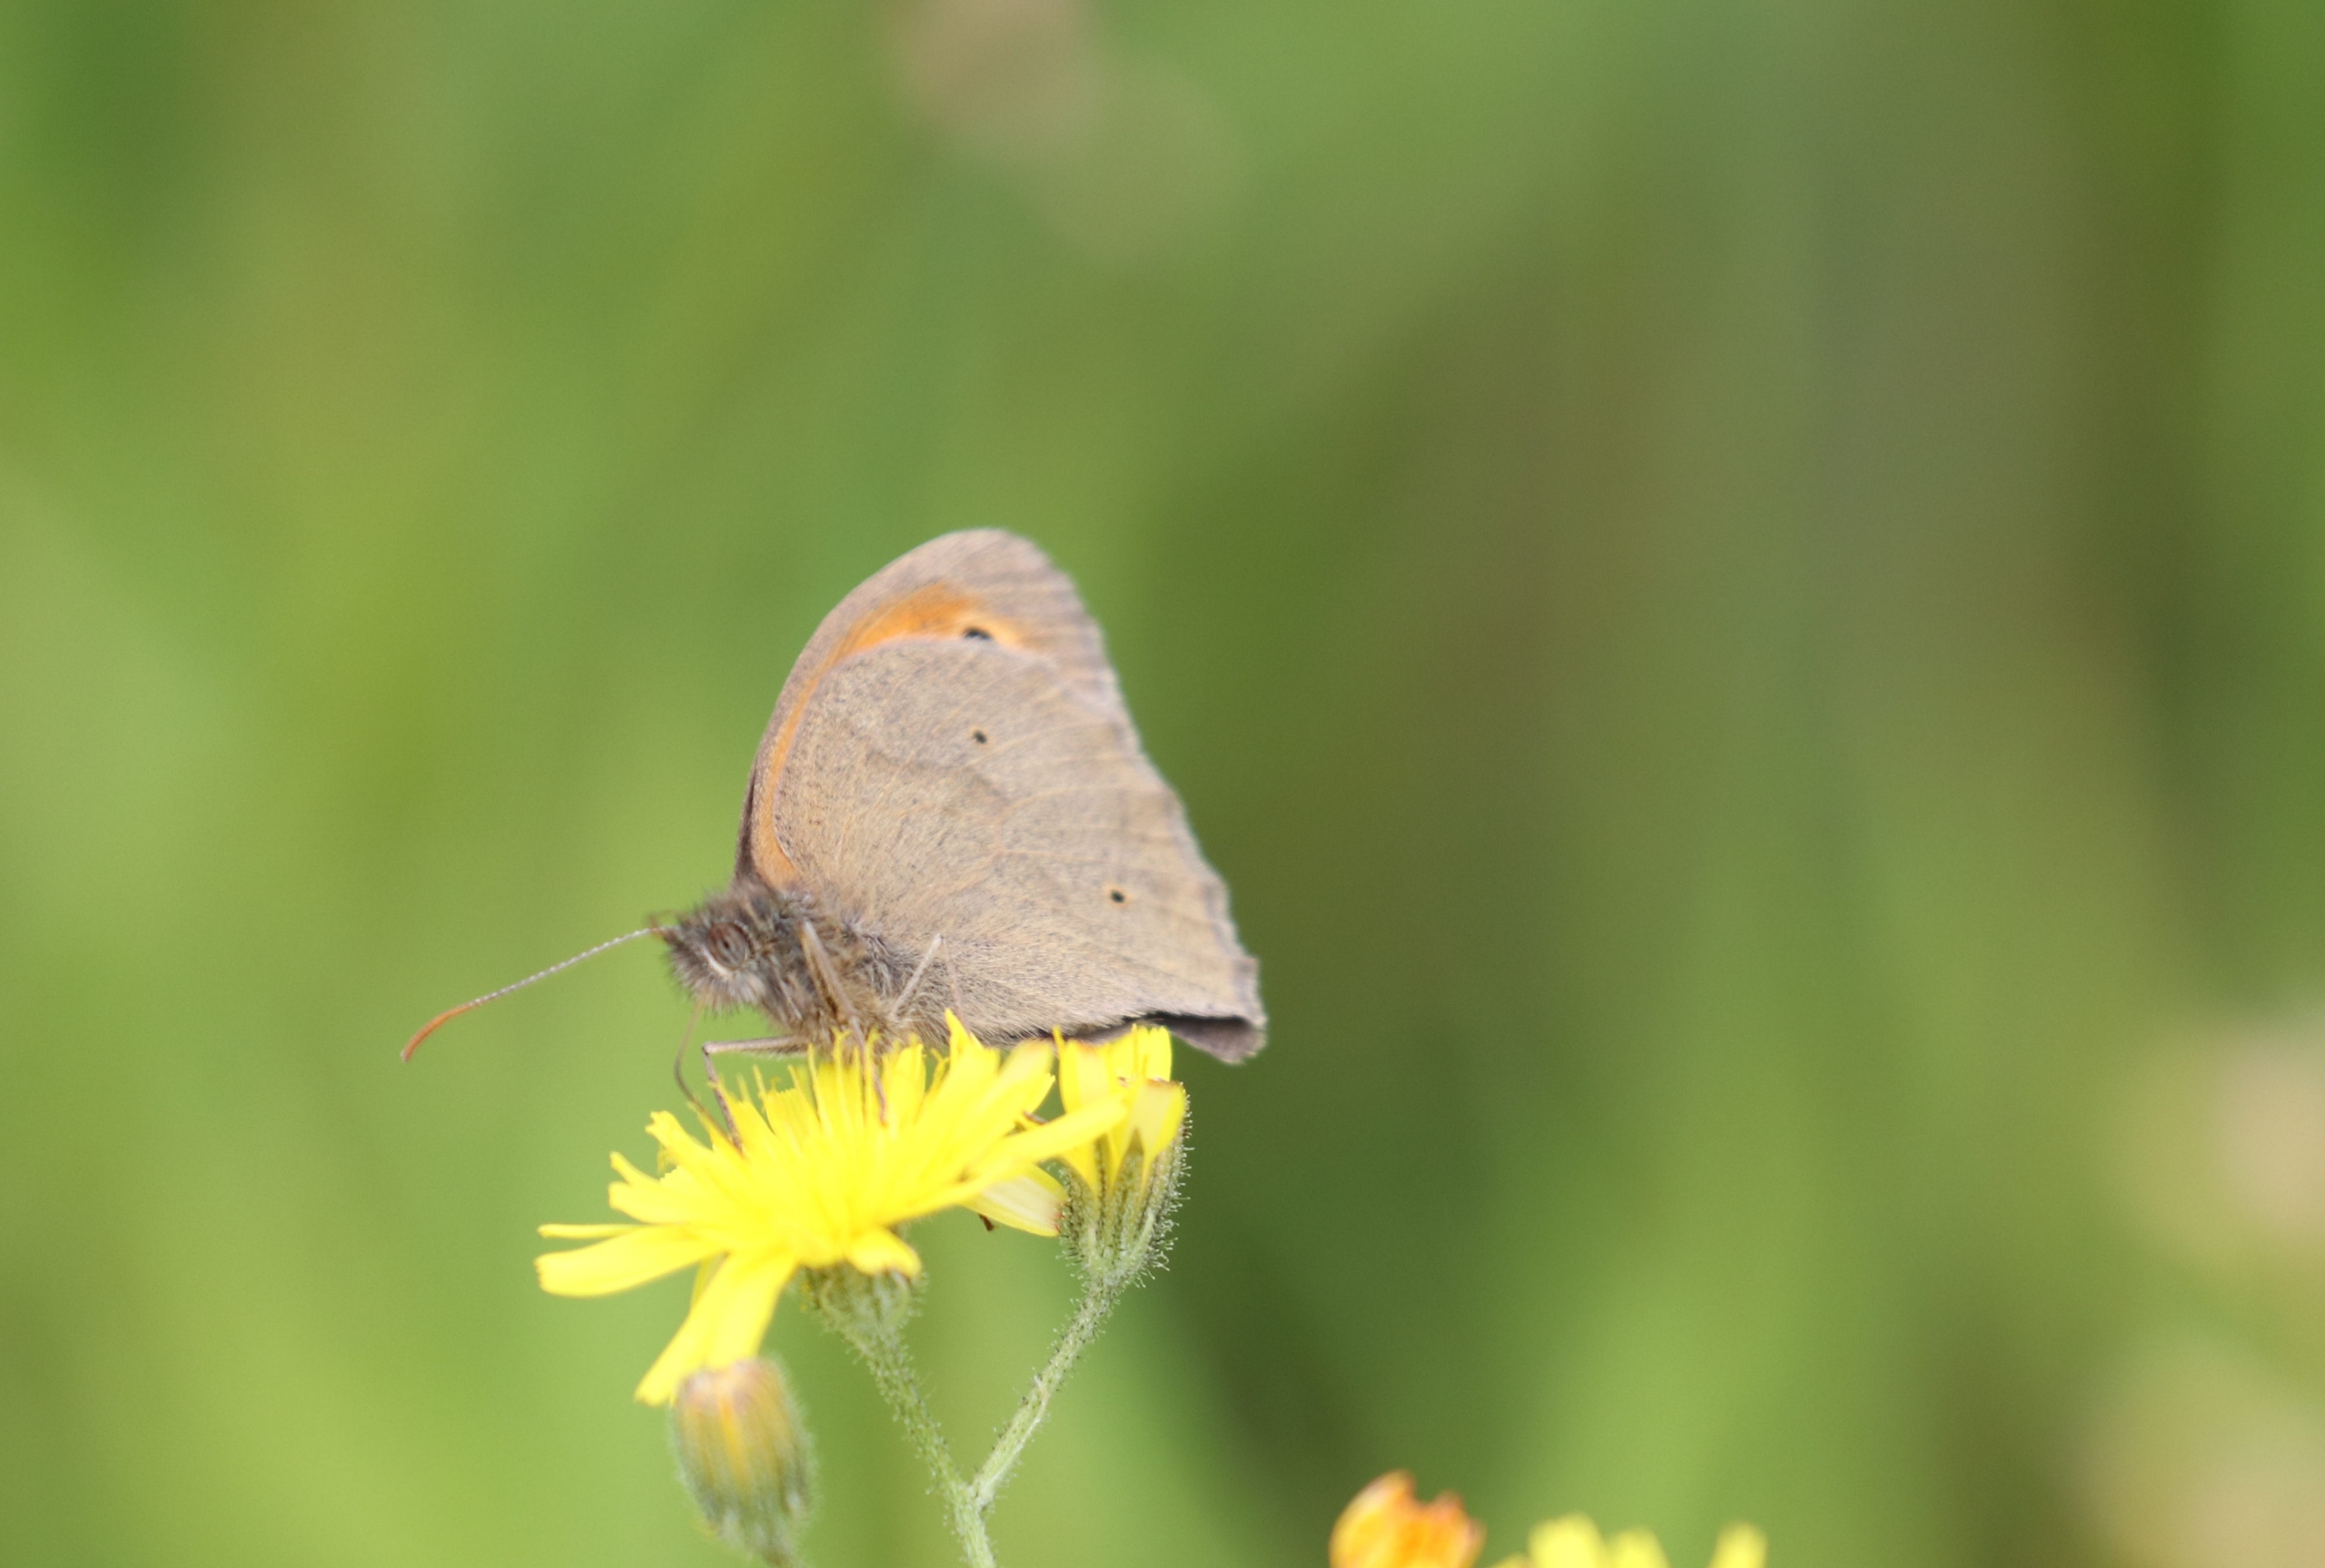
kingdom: Animalia
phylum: Arthropoda
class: Insecta
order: Lepidoptera
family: Nymphalidae
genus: Maniola
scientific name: Maniola jurtina
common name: Græsrandøje
